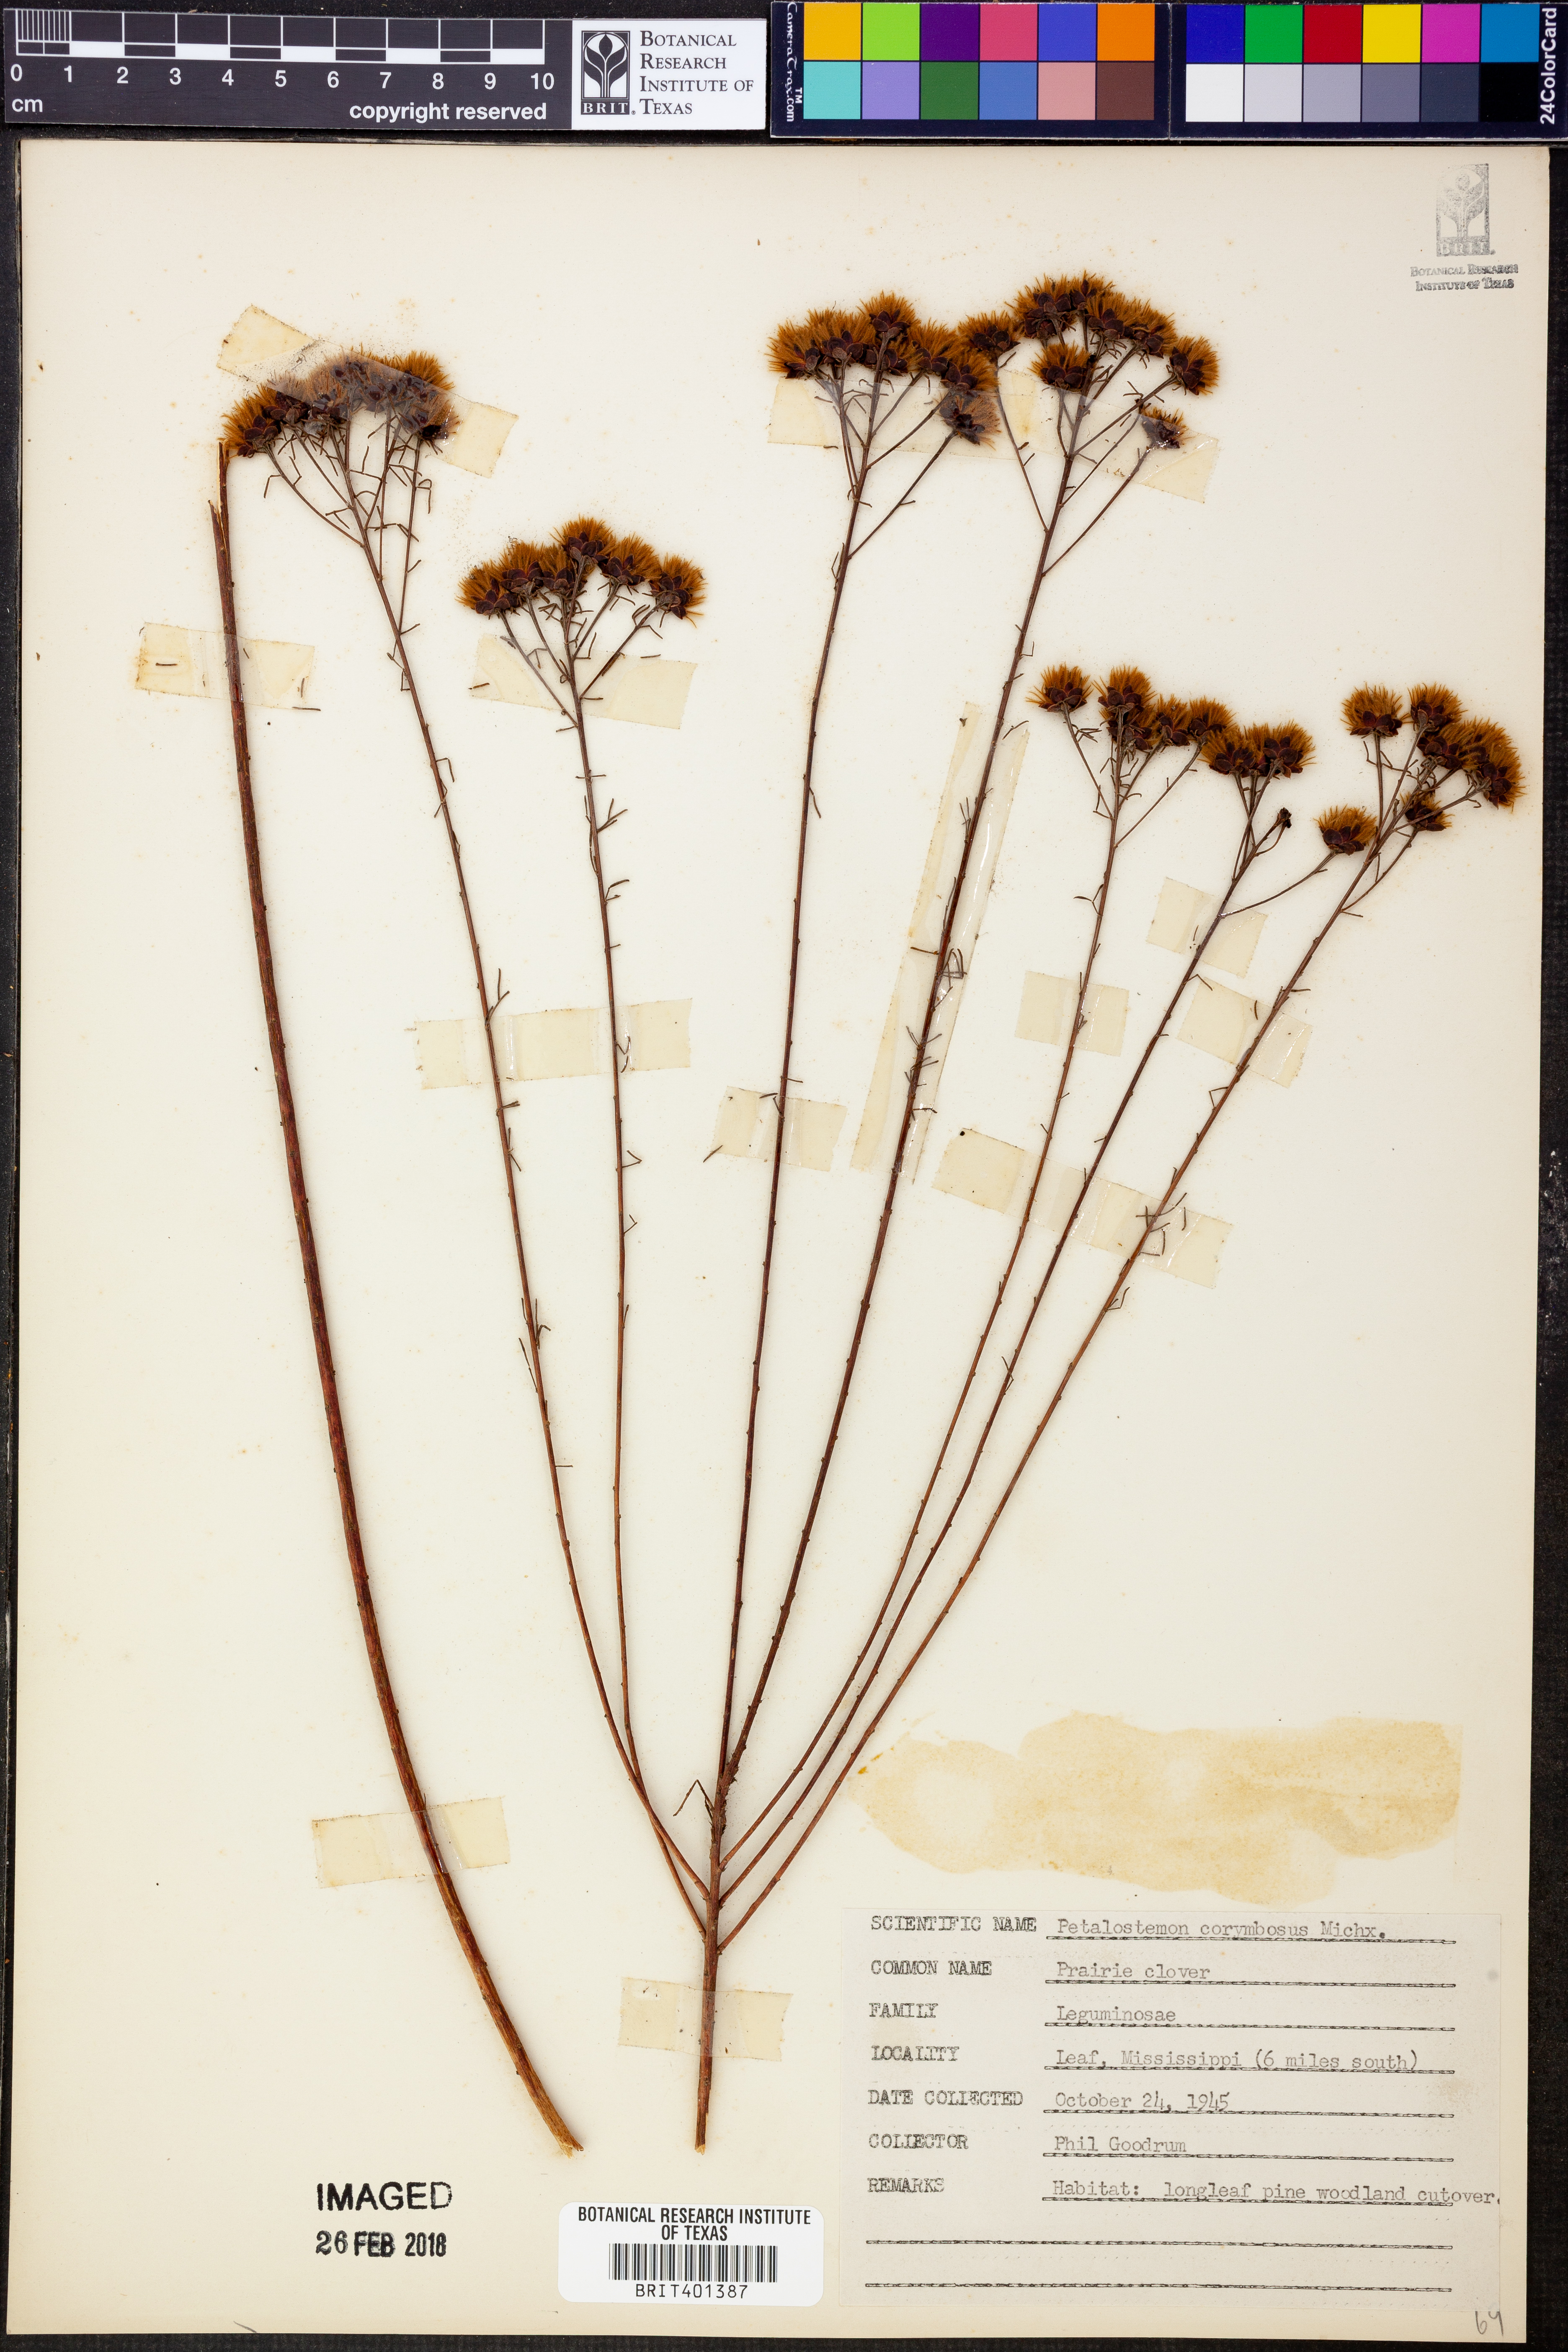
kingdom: Plantae
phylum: Tracheophyta
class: Magnoliopsida
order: Fabales
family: Fabaceae
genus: Dalea
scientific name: Dalea pinnata
